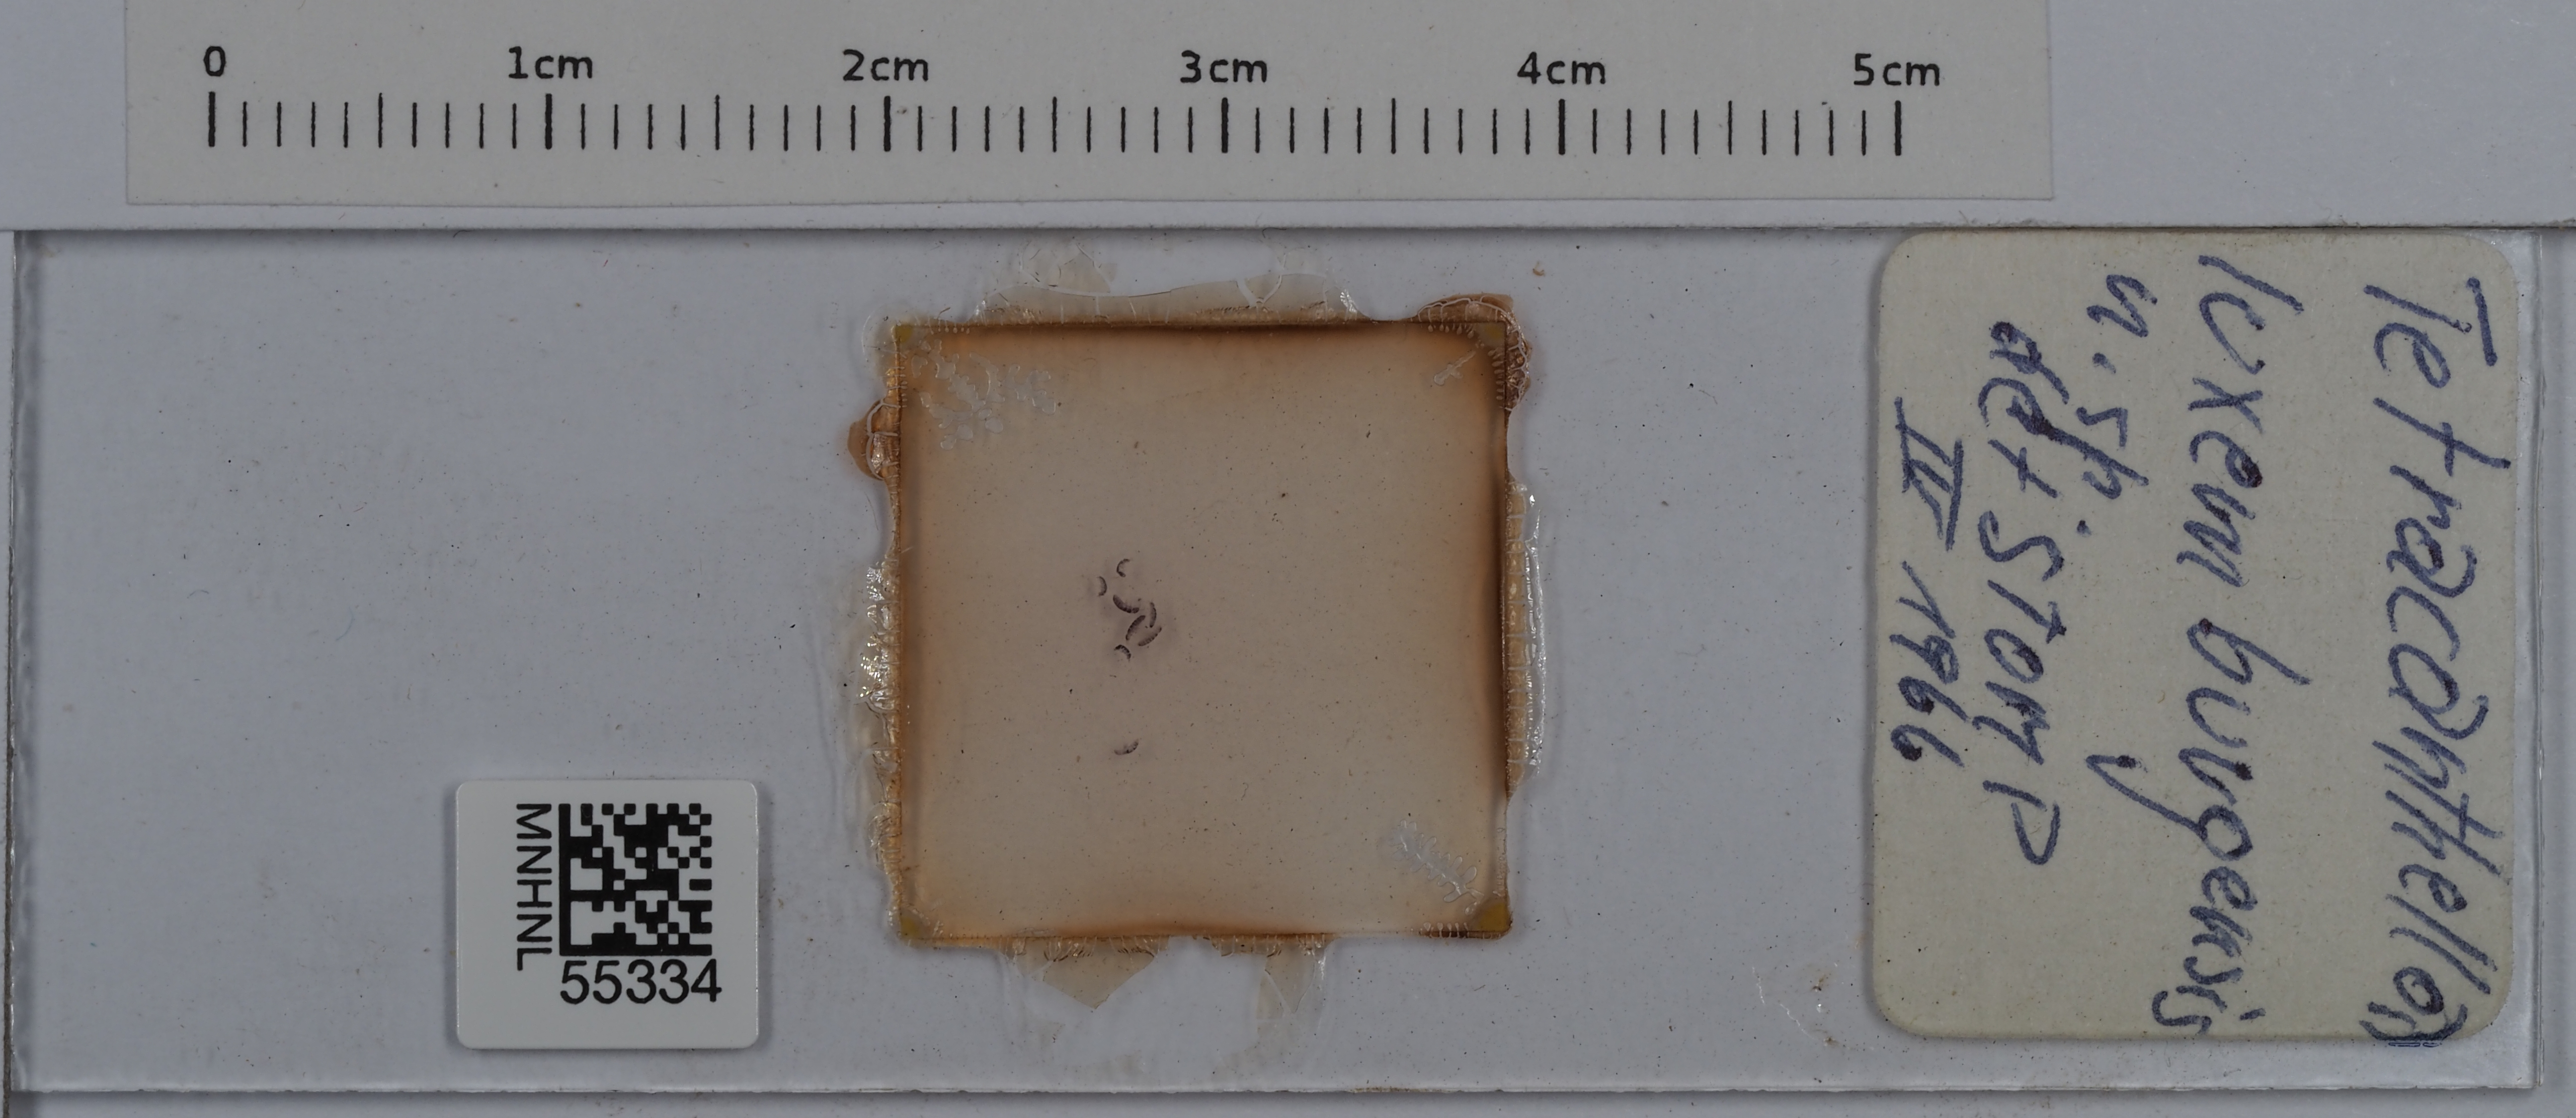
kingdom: Animalia
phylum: Arthropoda
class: Collembola
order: Entomobryomorpha
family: Isotomidae
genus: Tetracanthella
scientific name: Tetracanthella luxemburgensis
